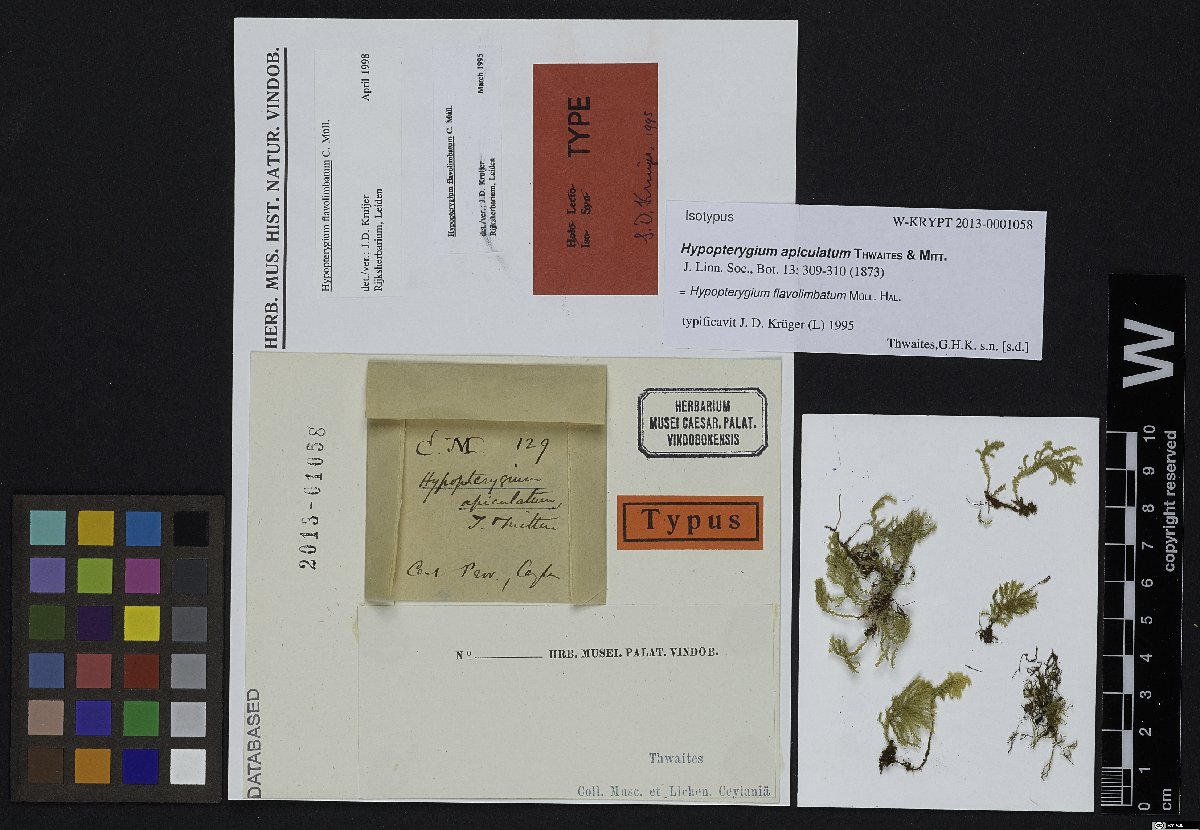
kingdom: Plantae
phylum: Bryophyta
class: Bryopsida
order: Hypopterygiales
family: Hypopterygiaceae
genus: Hypopterygium
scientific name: Hypopterygium flavolimbatum
